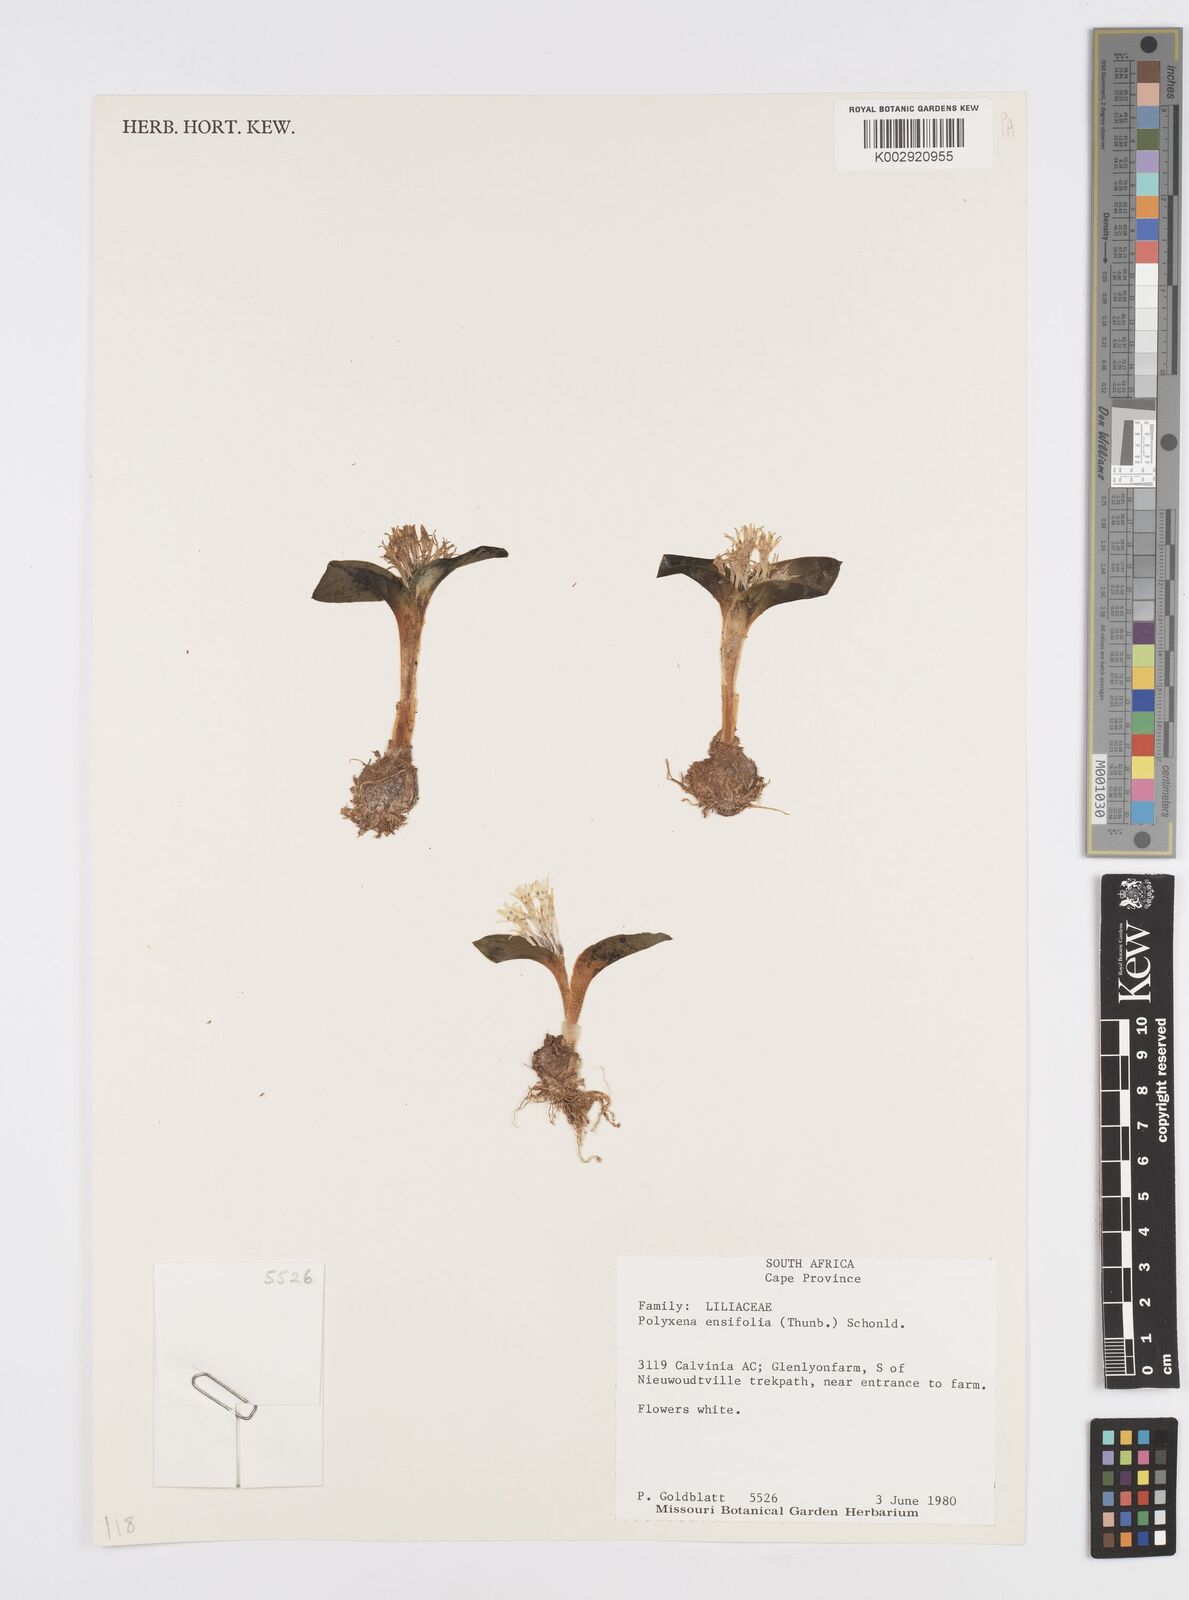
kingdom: Plantae
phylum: Tracheophyta
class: Liliopsida
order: Asparagales
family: Asparagaceae
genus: Lachenalia
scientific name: Lachenalia ensifolia
